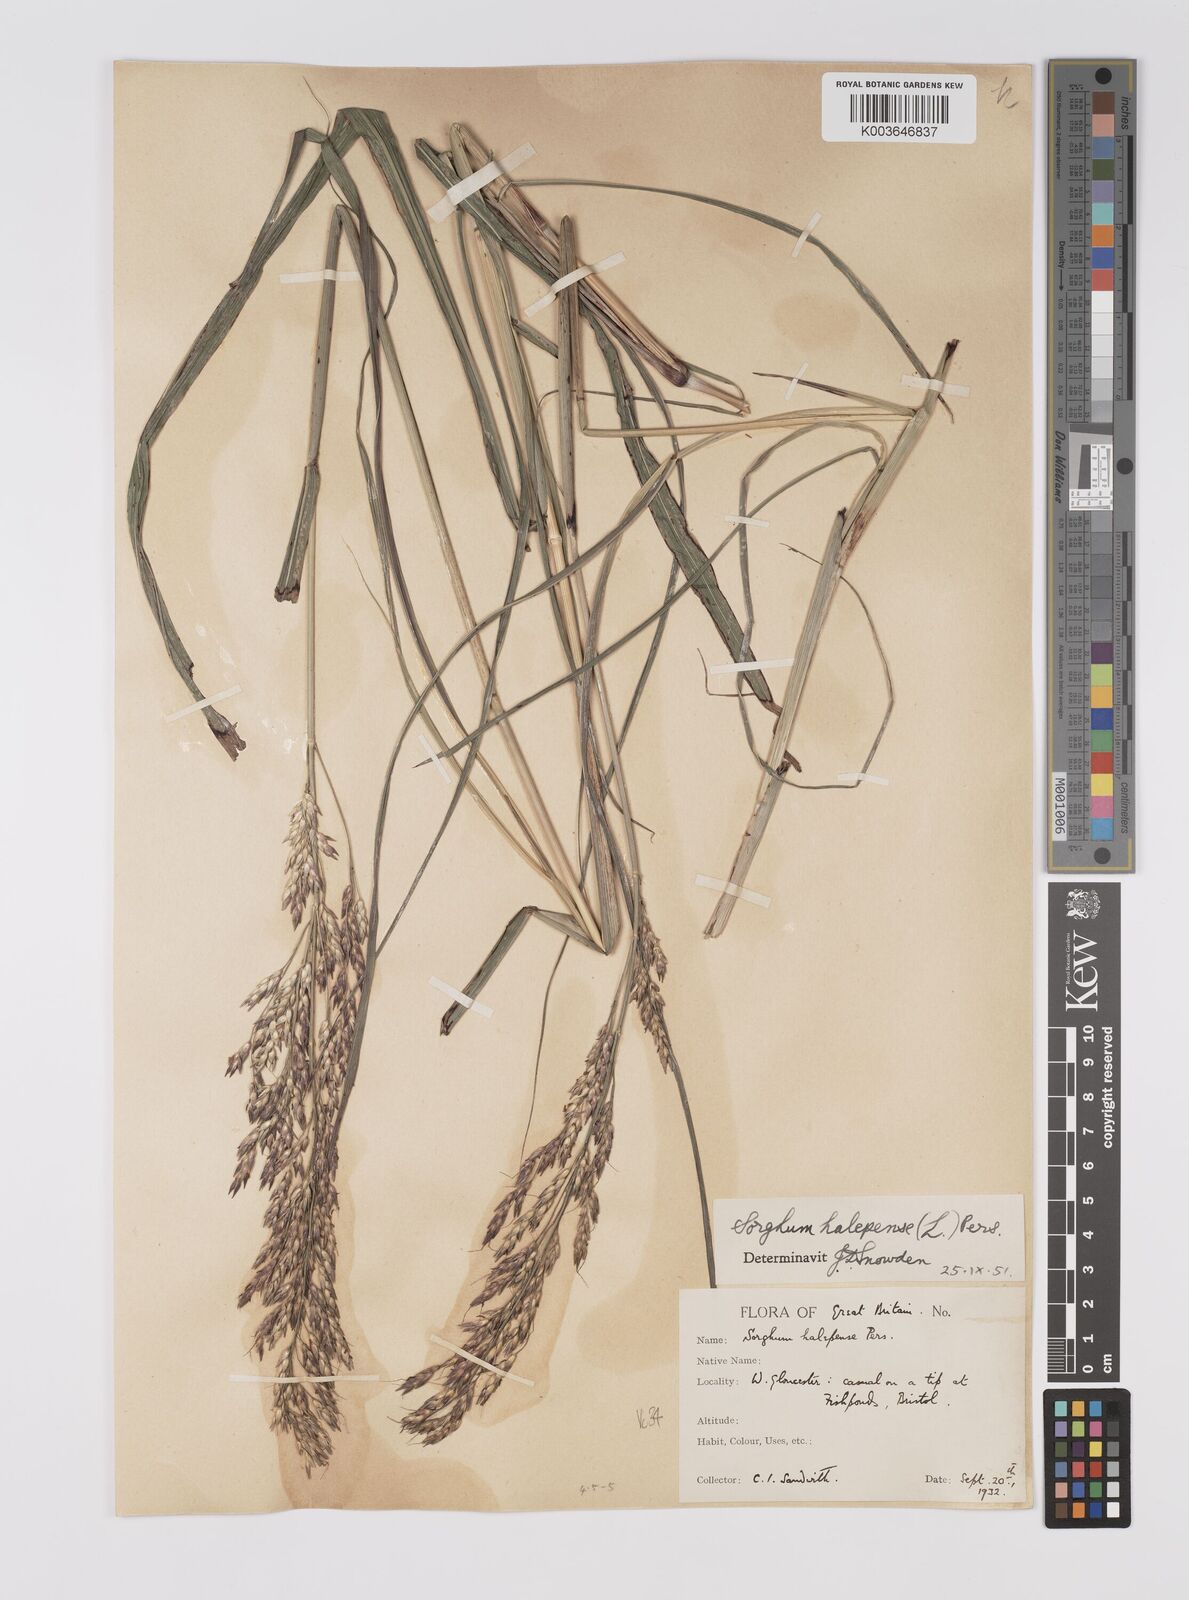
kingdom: Plantae
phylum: Tracheophyta
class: Liliopsida
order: Poales
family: Poaceae
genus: Sorghum
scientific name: Sorghum halepense
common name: Johnson-grass
